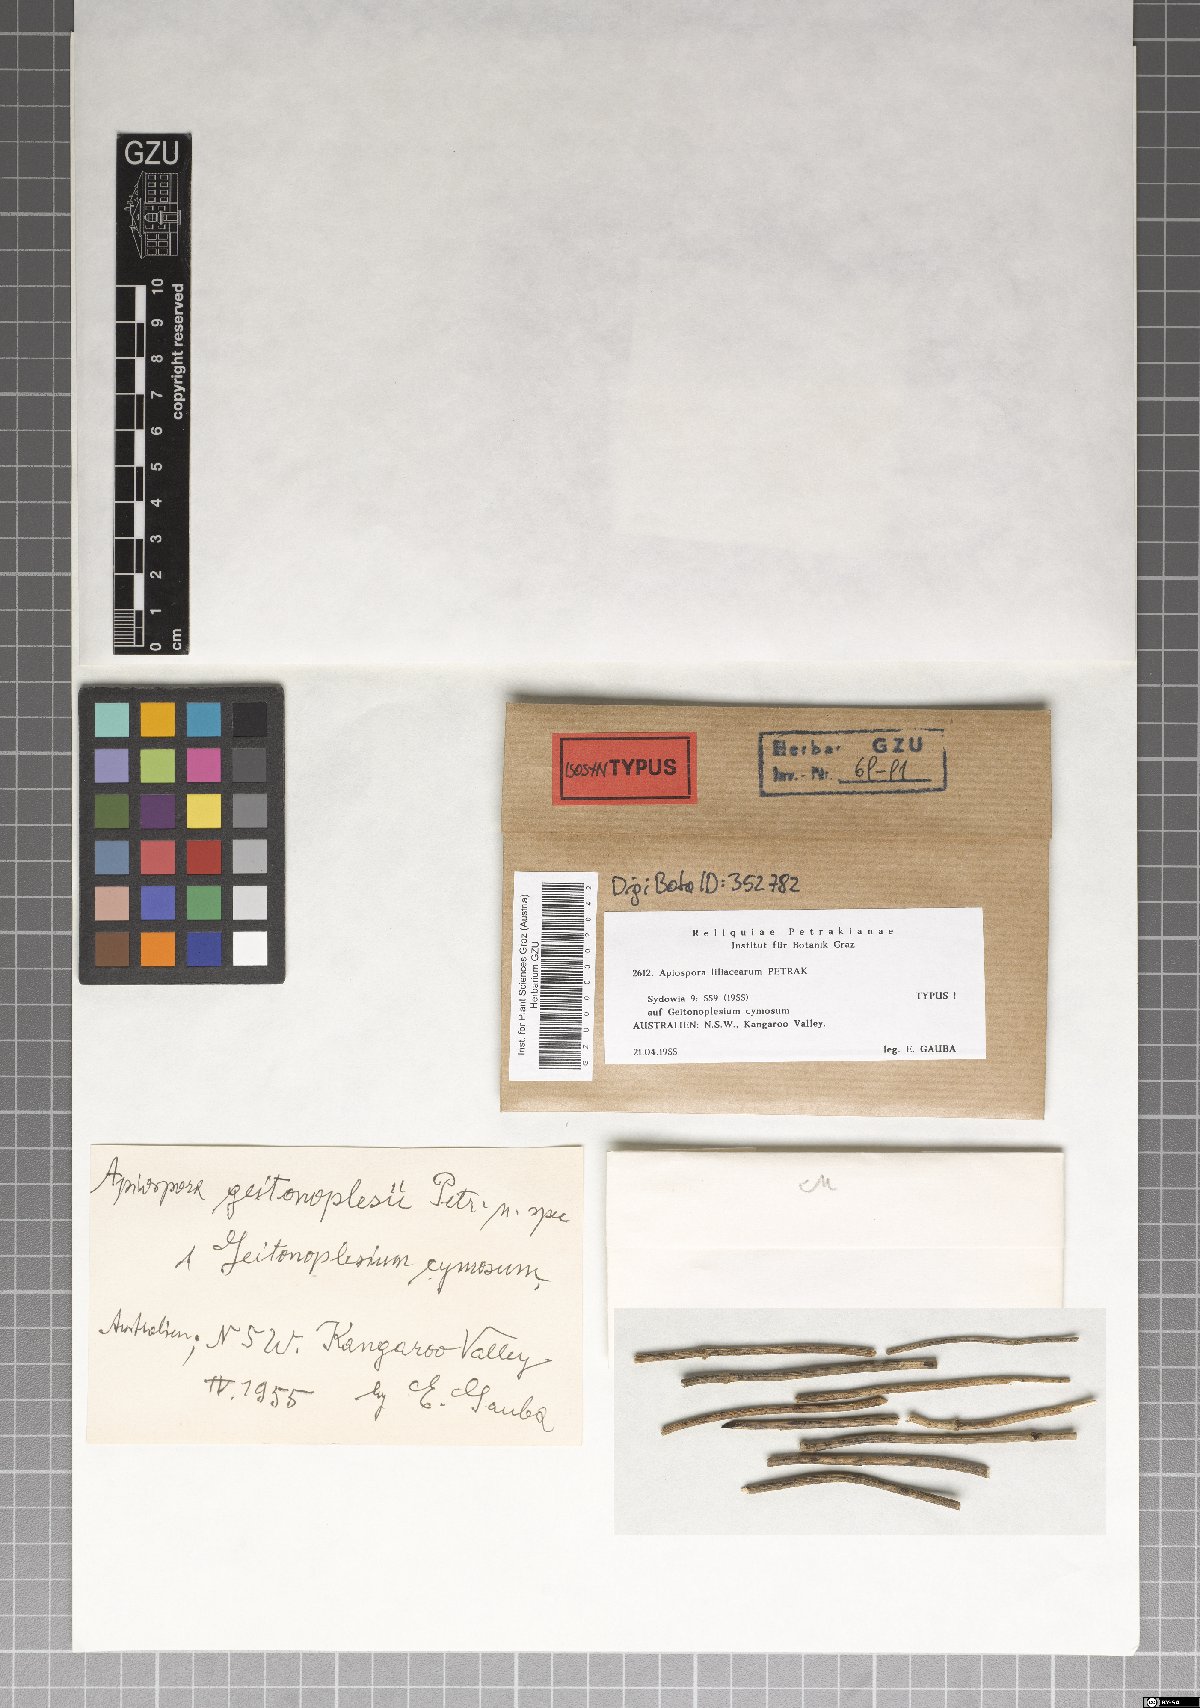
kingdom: Fungi
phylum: Ascomycota
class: Sordariomycetes
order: Xylariales
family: Apiosporaceae
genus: Apiospora
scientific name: Apiospora liliacearum
